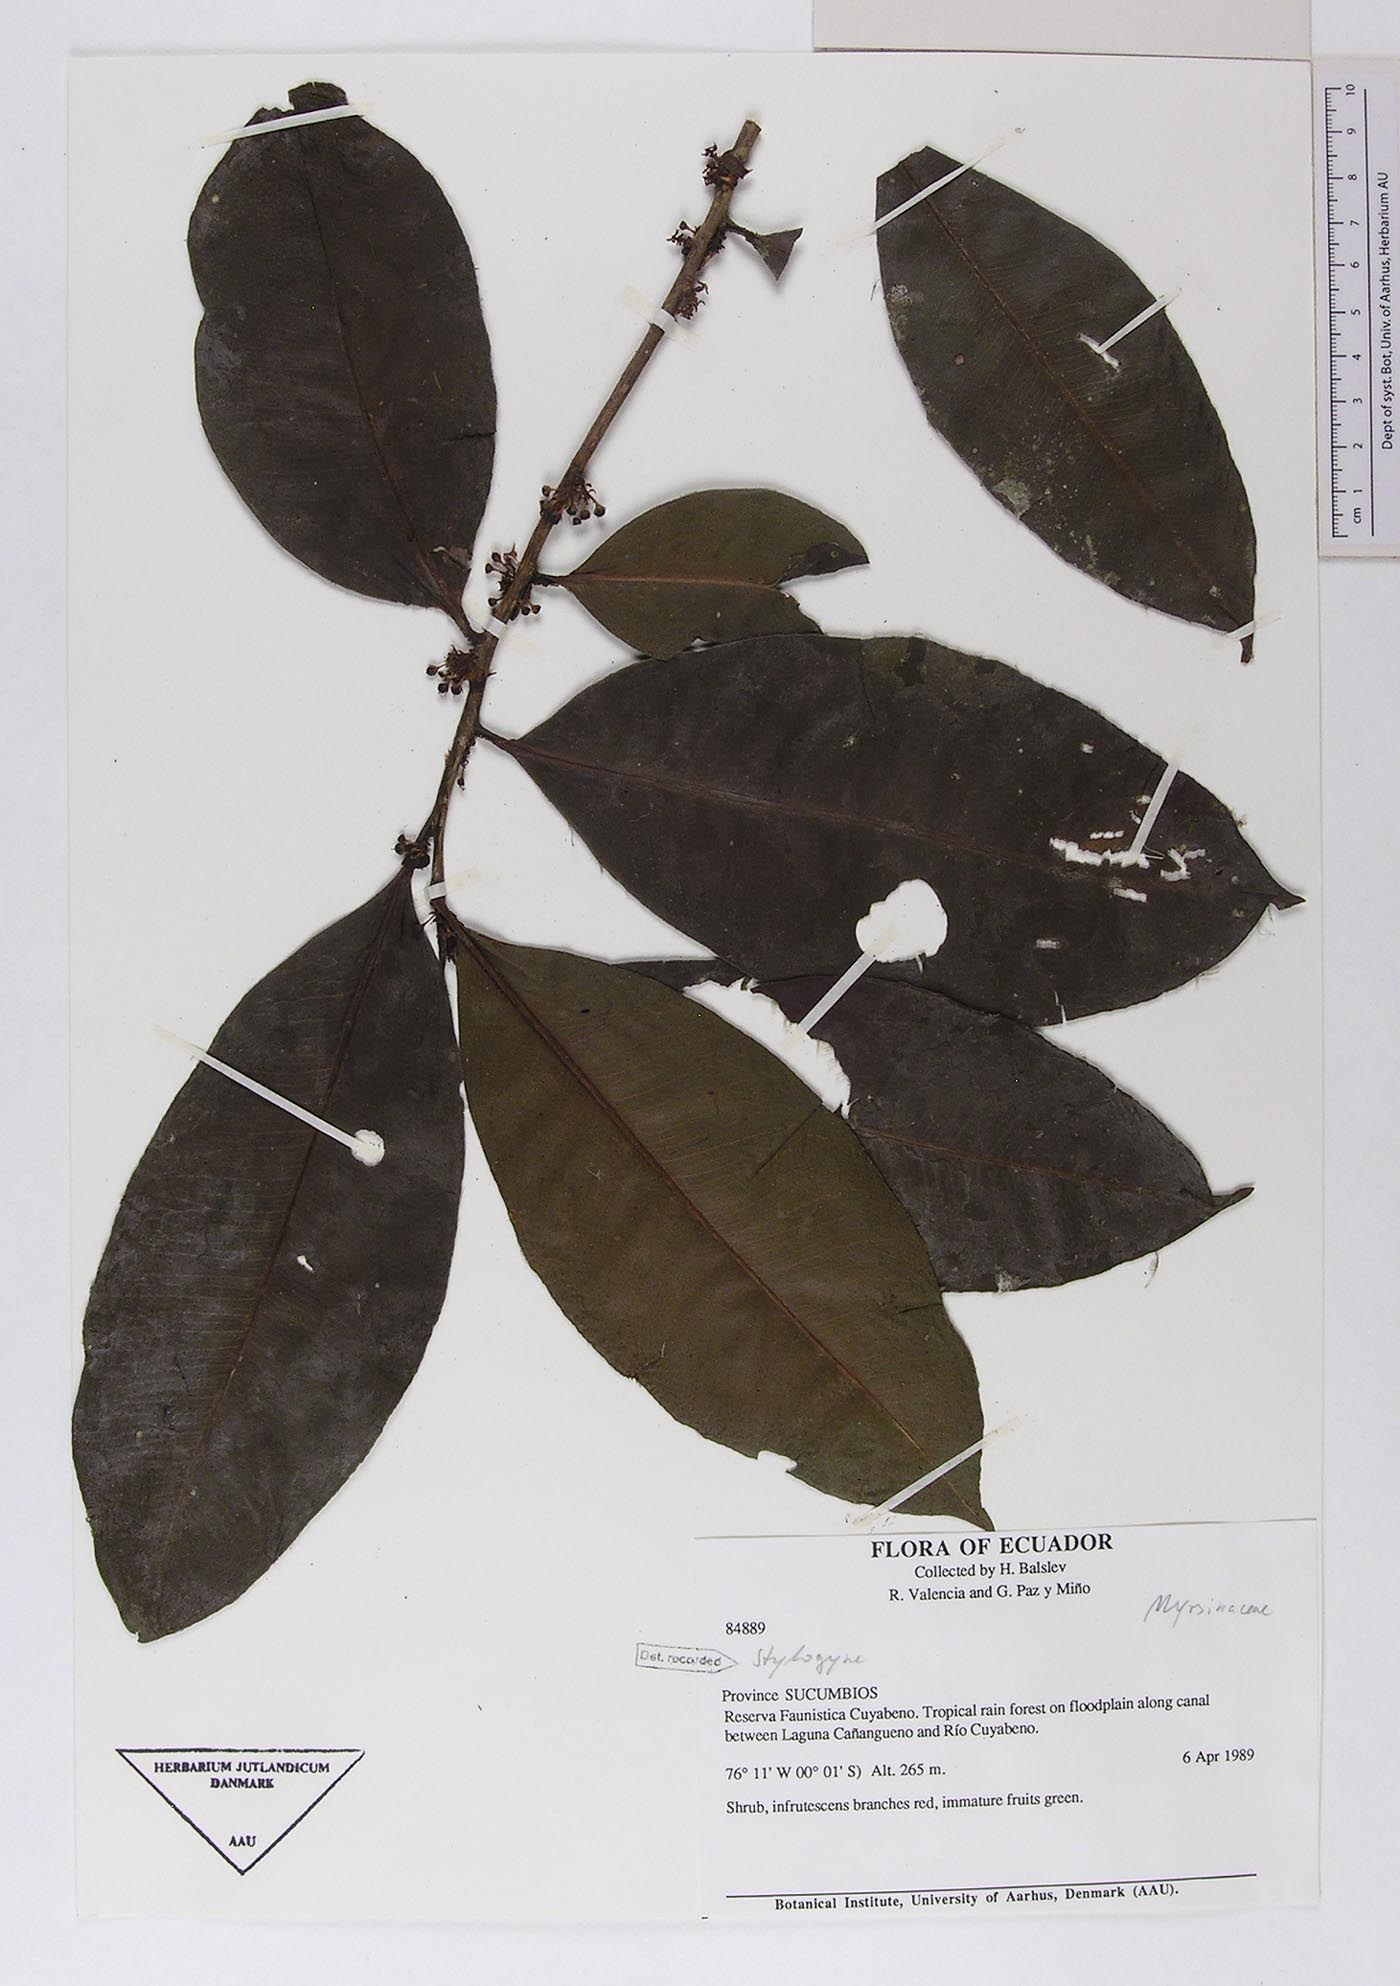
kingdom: Plantae
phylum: Tracheophyta
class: Magnoliopsida
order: Ericales
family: Primulaceae
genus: Stylogyne
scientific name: Stylogyne
